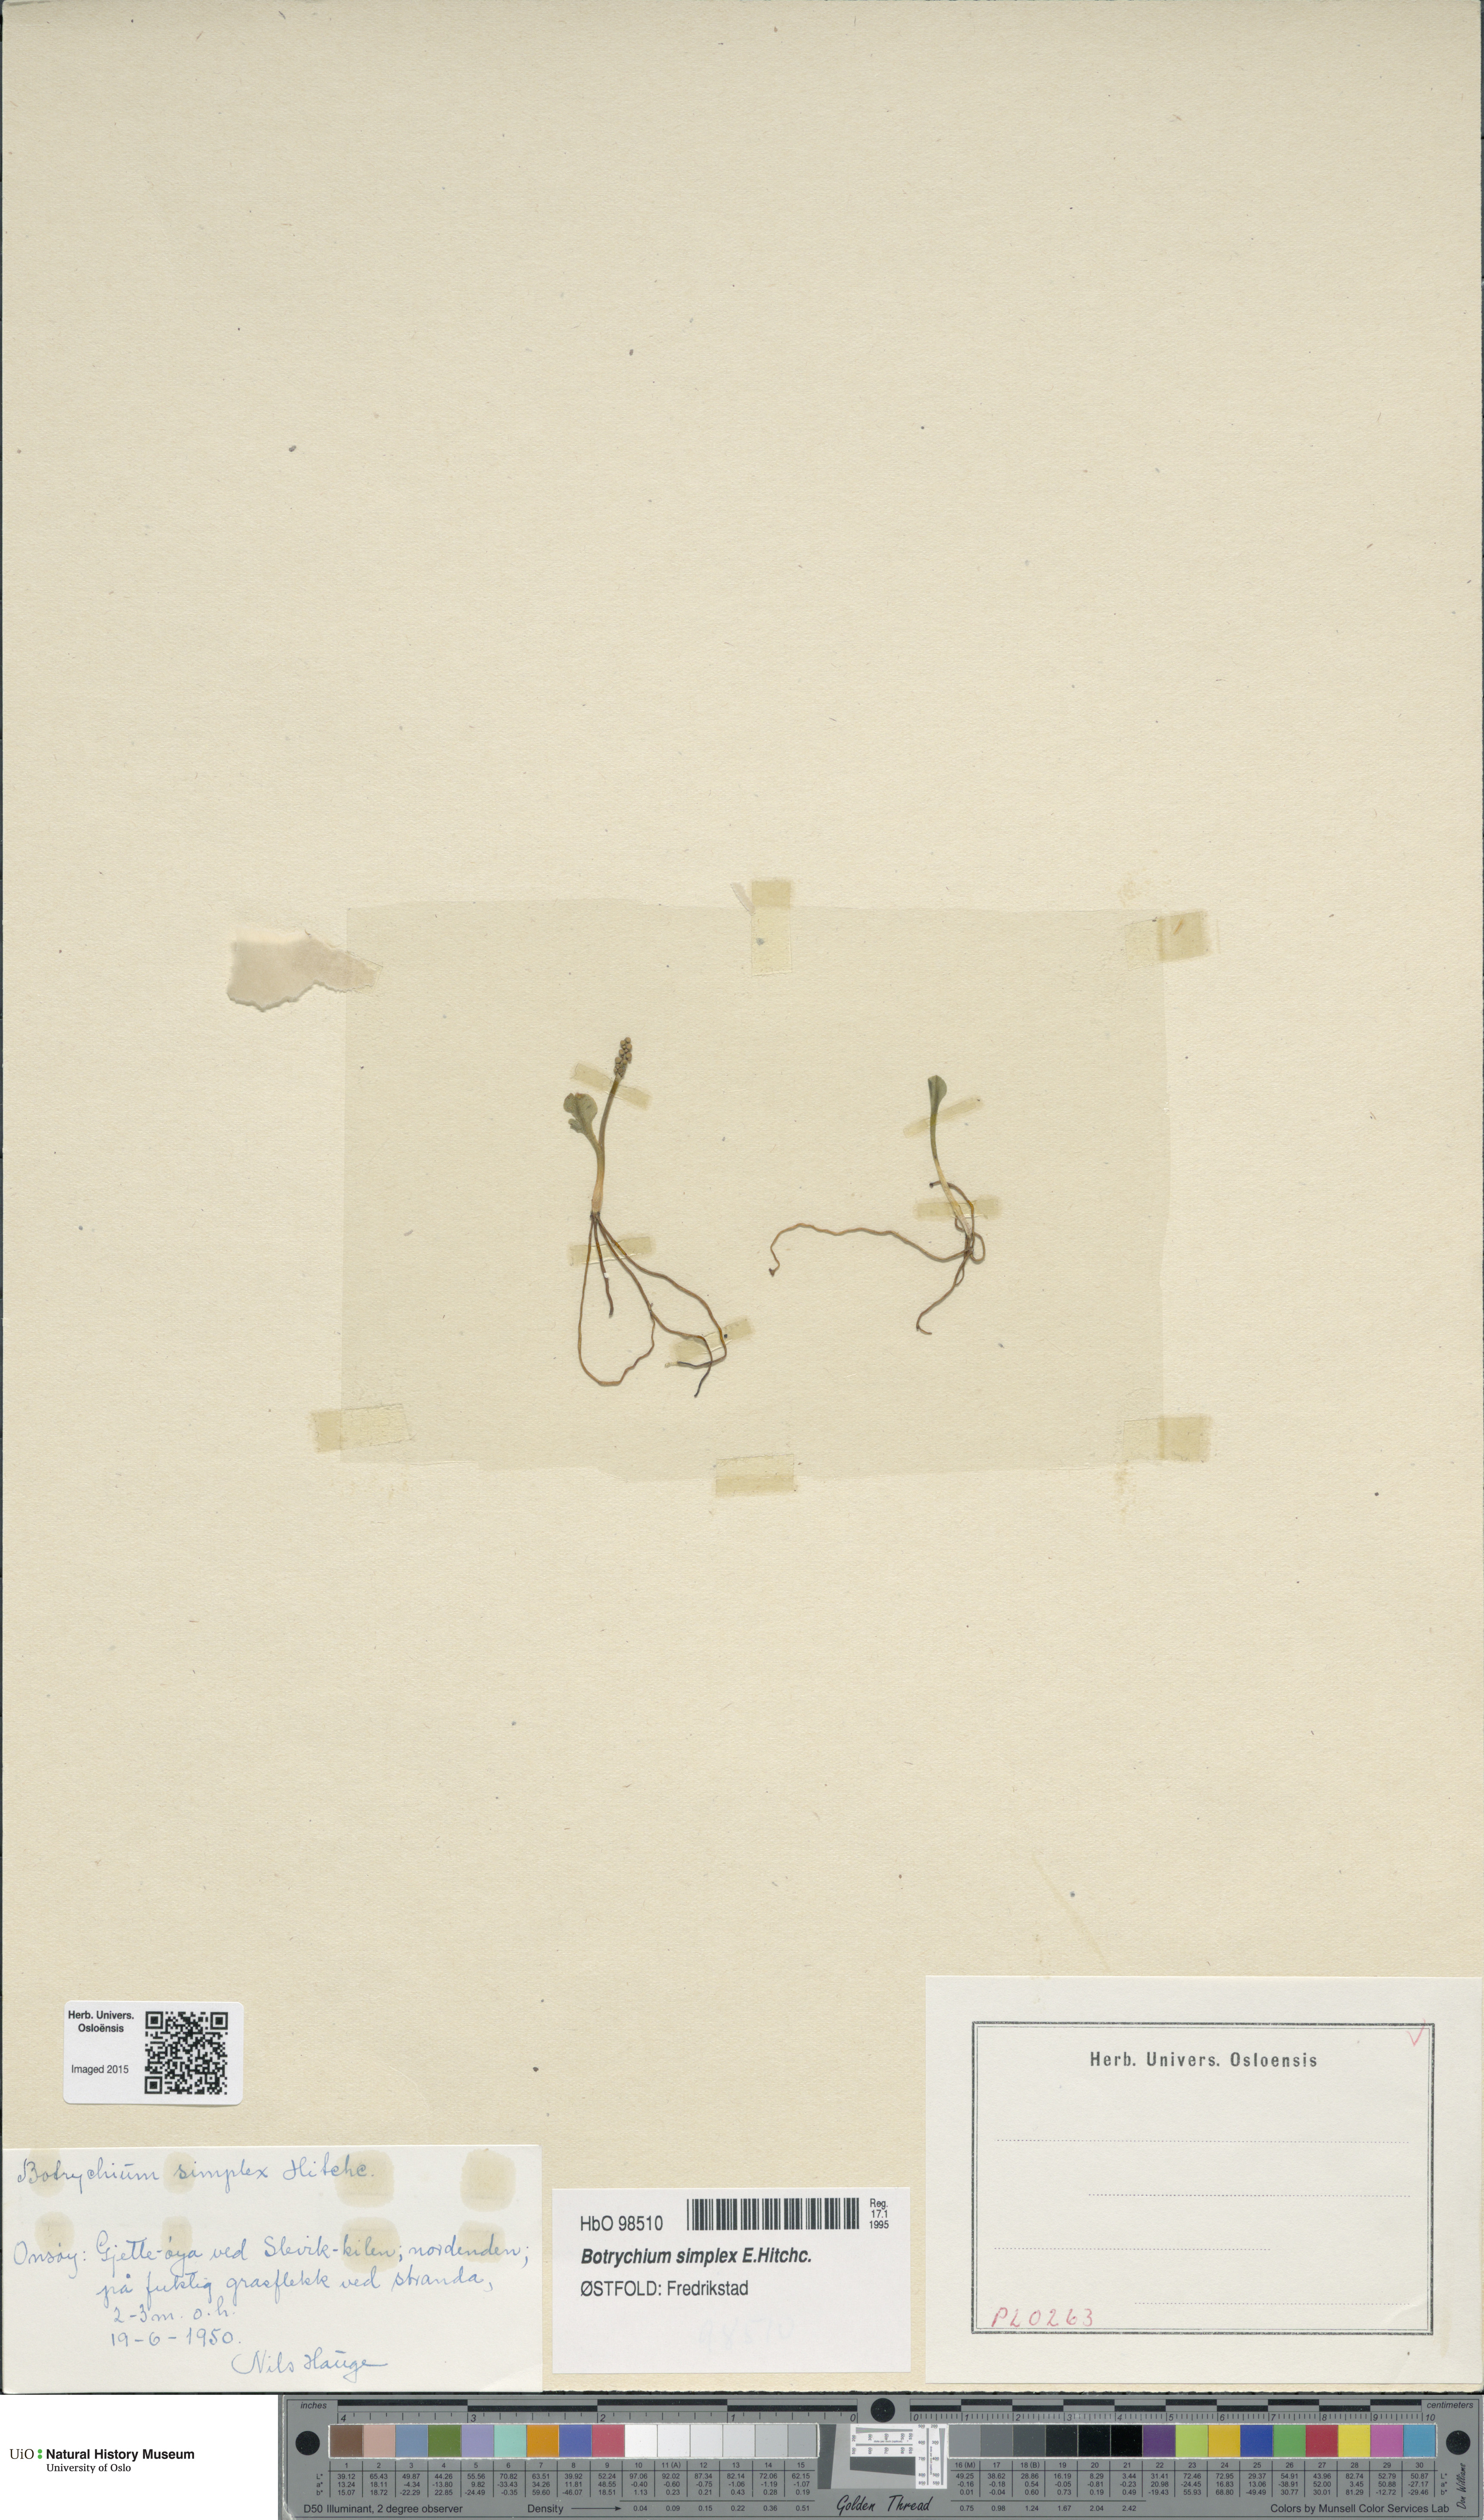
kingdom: Plantae
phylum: Tracheophyta
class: Polypodiopsida
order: Ophioglossales
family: Ophioglossaceae
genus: Botrychium
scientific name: Botrychium simplex
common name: Least moonwort
